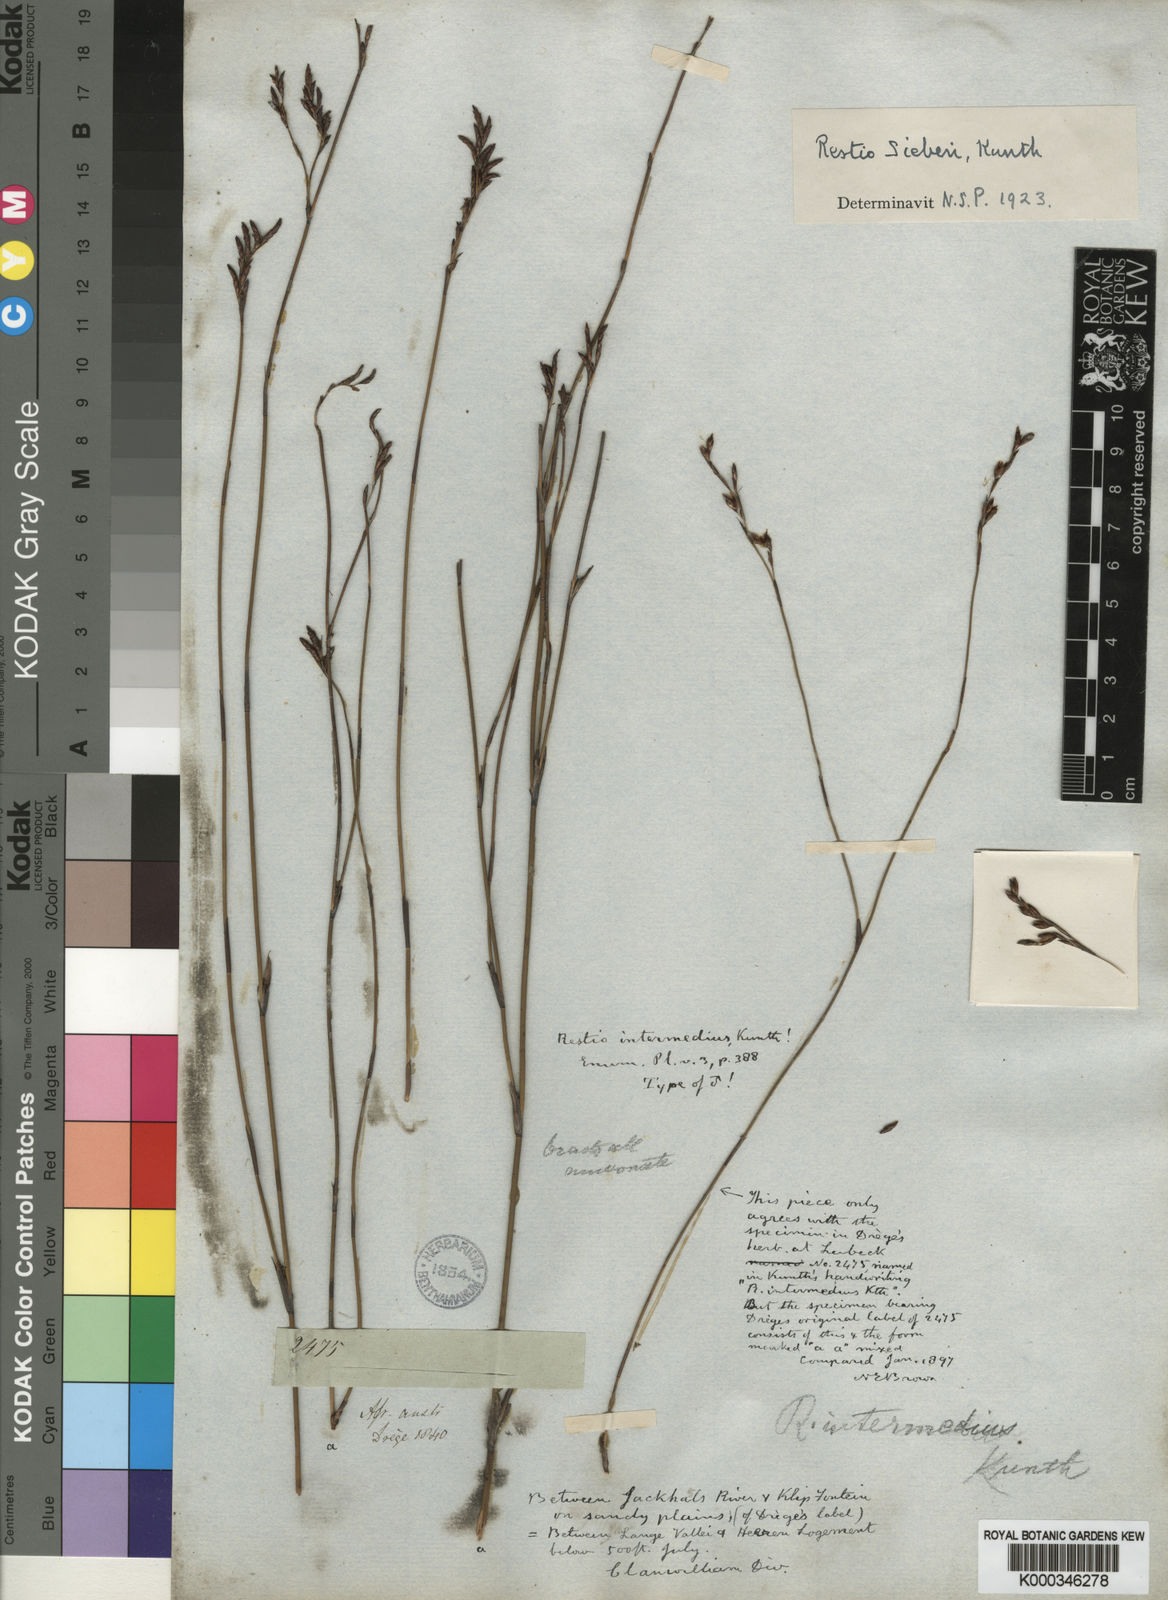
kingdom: Plantae
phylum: Tracheophyta
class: Liliopsida
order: Poales
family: Restionaceae
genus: Restio
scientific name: Restio sieberi
